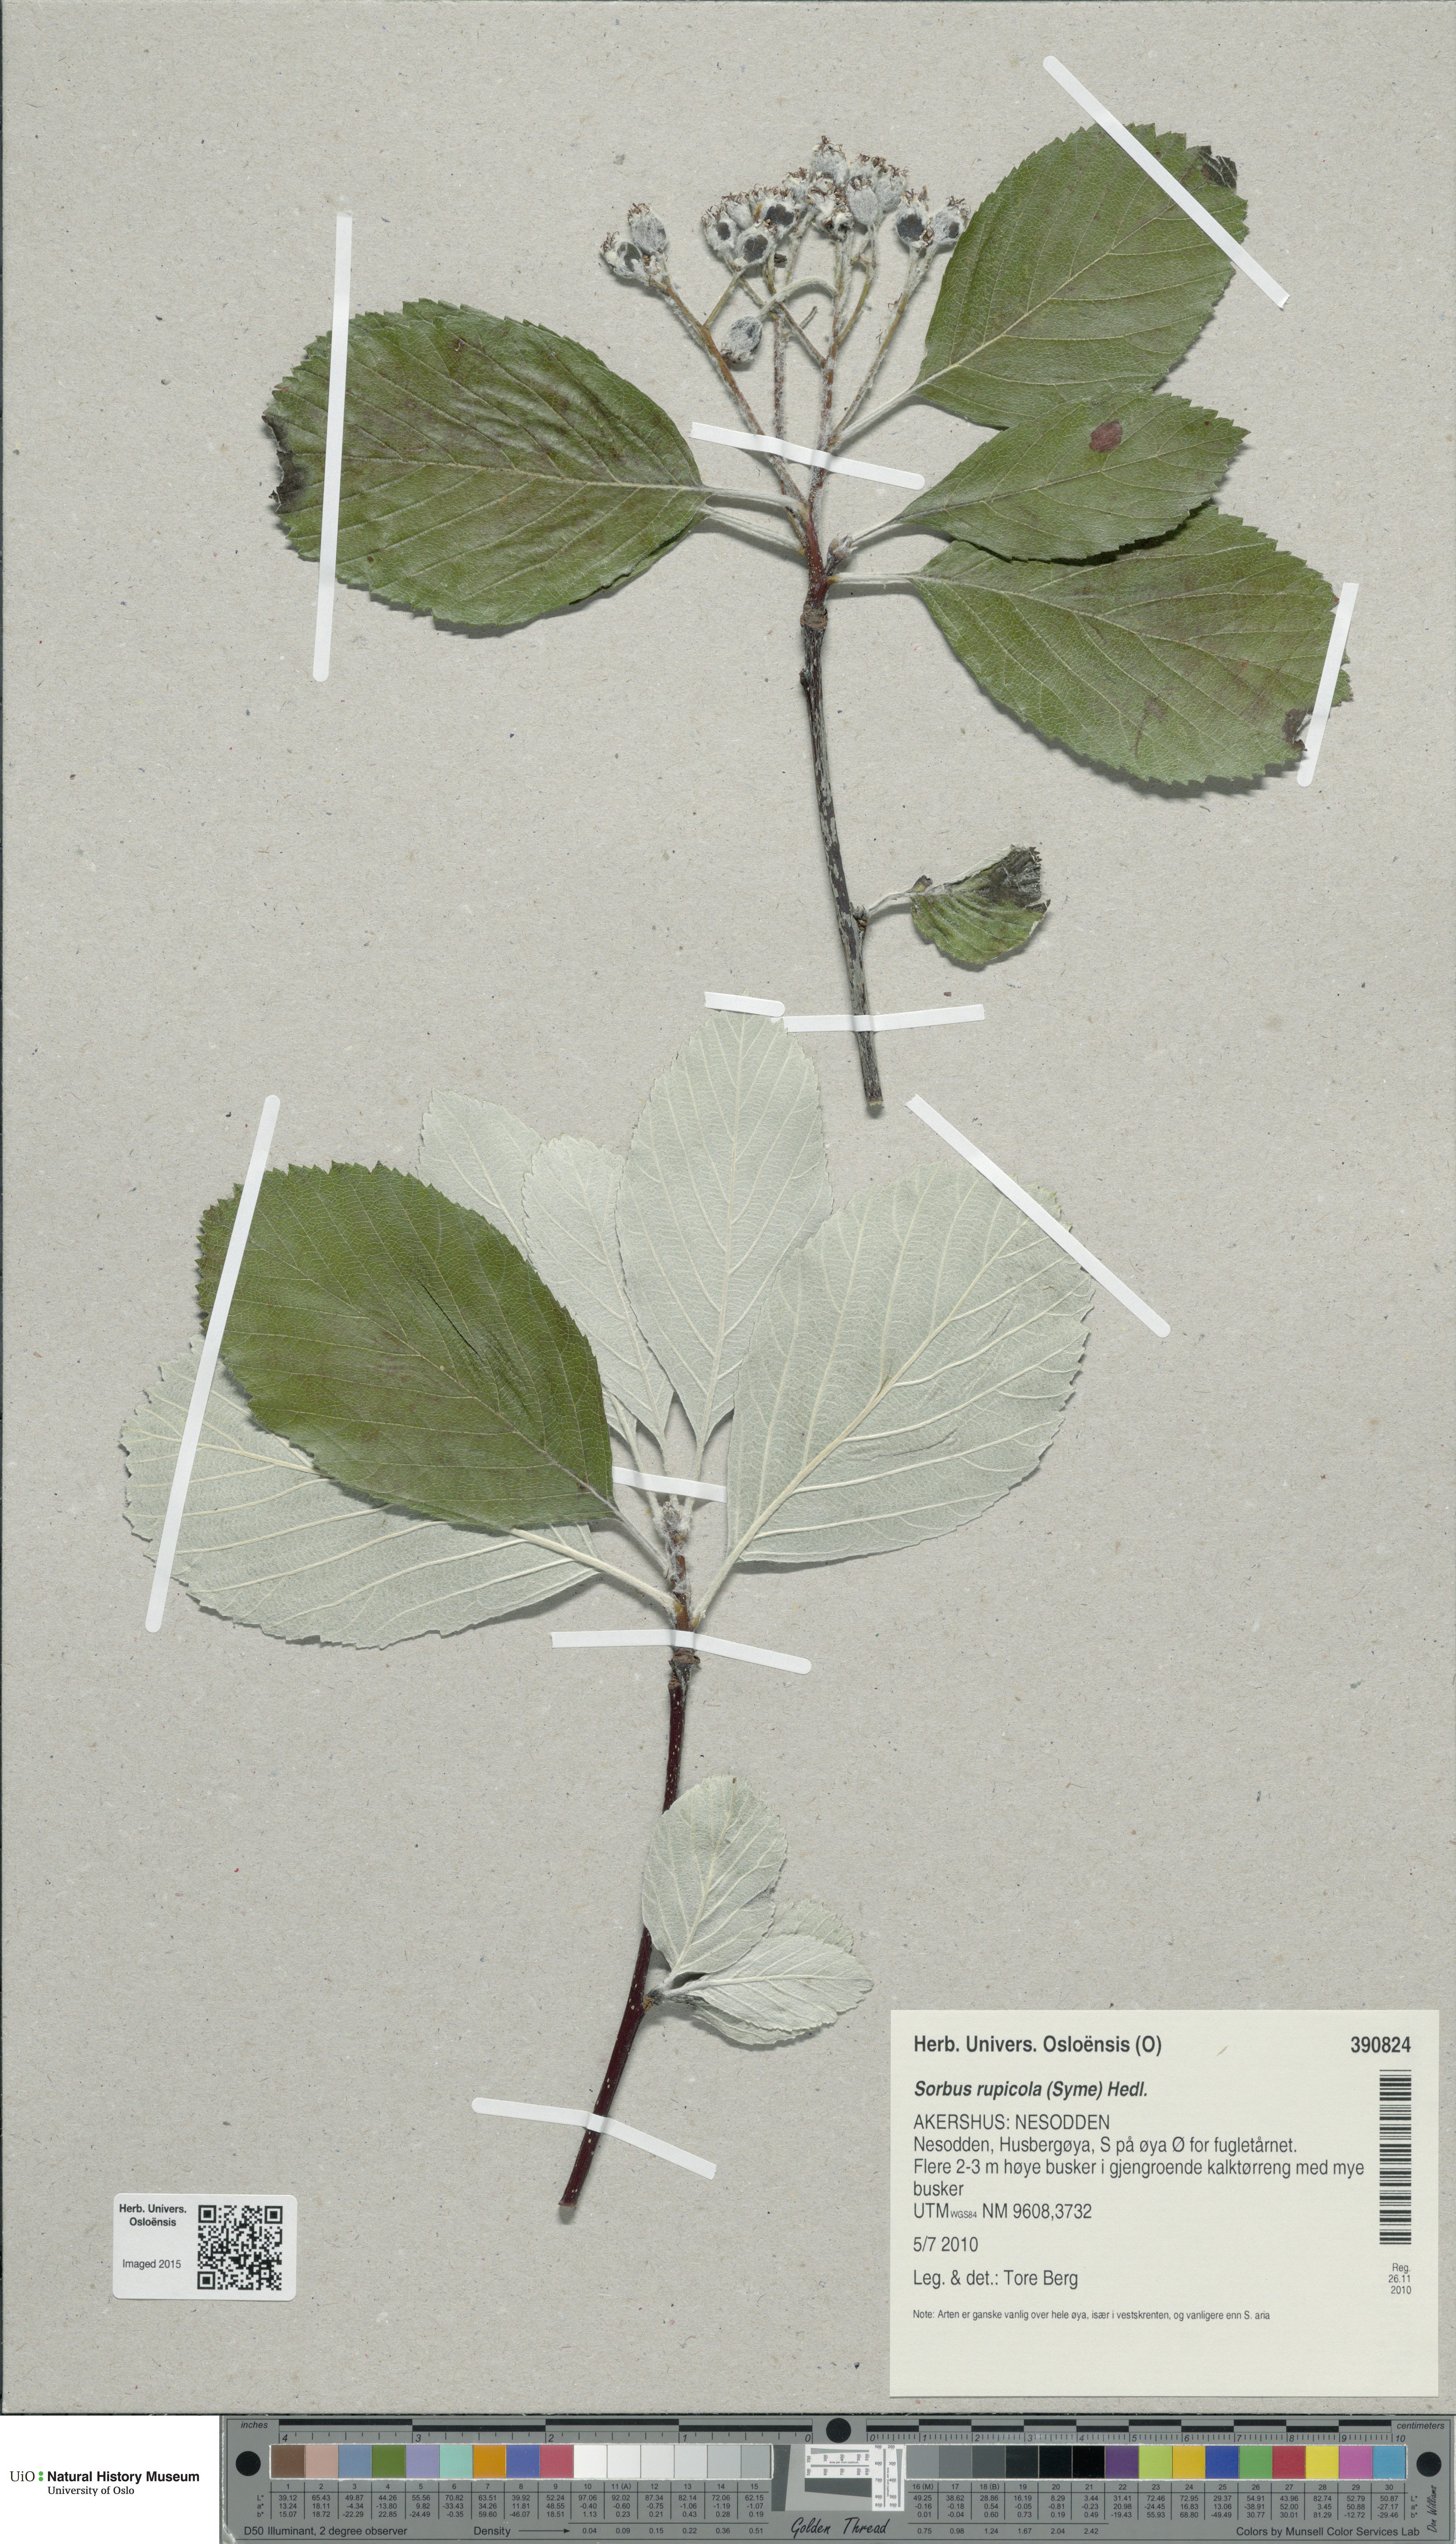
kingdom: Plantae
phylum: Tracheophyta
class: Magnoliopsida
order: Rosales
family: Rosaceae
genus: Aria
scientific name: Aria rupicola
